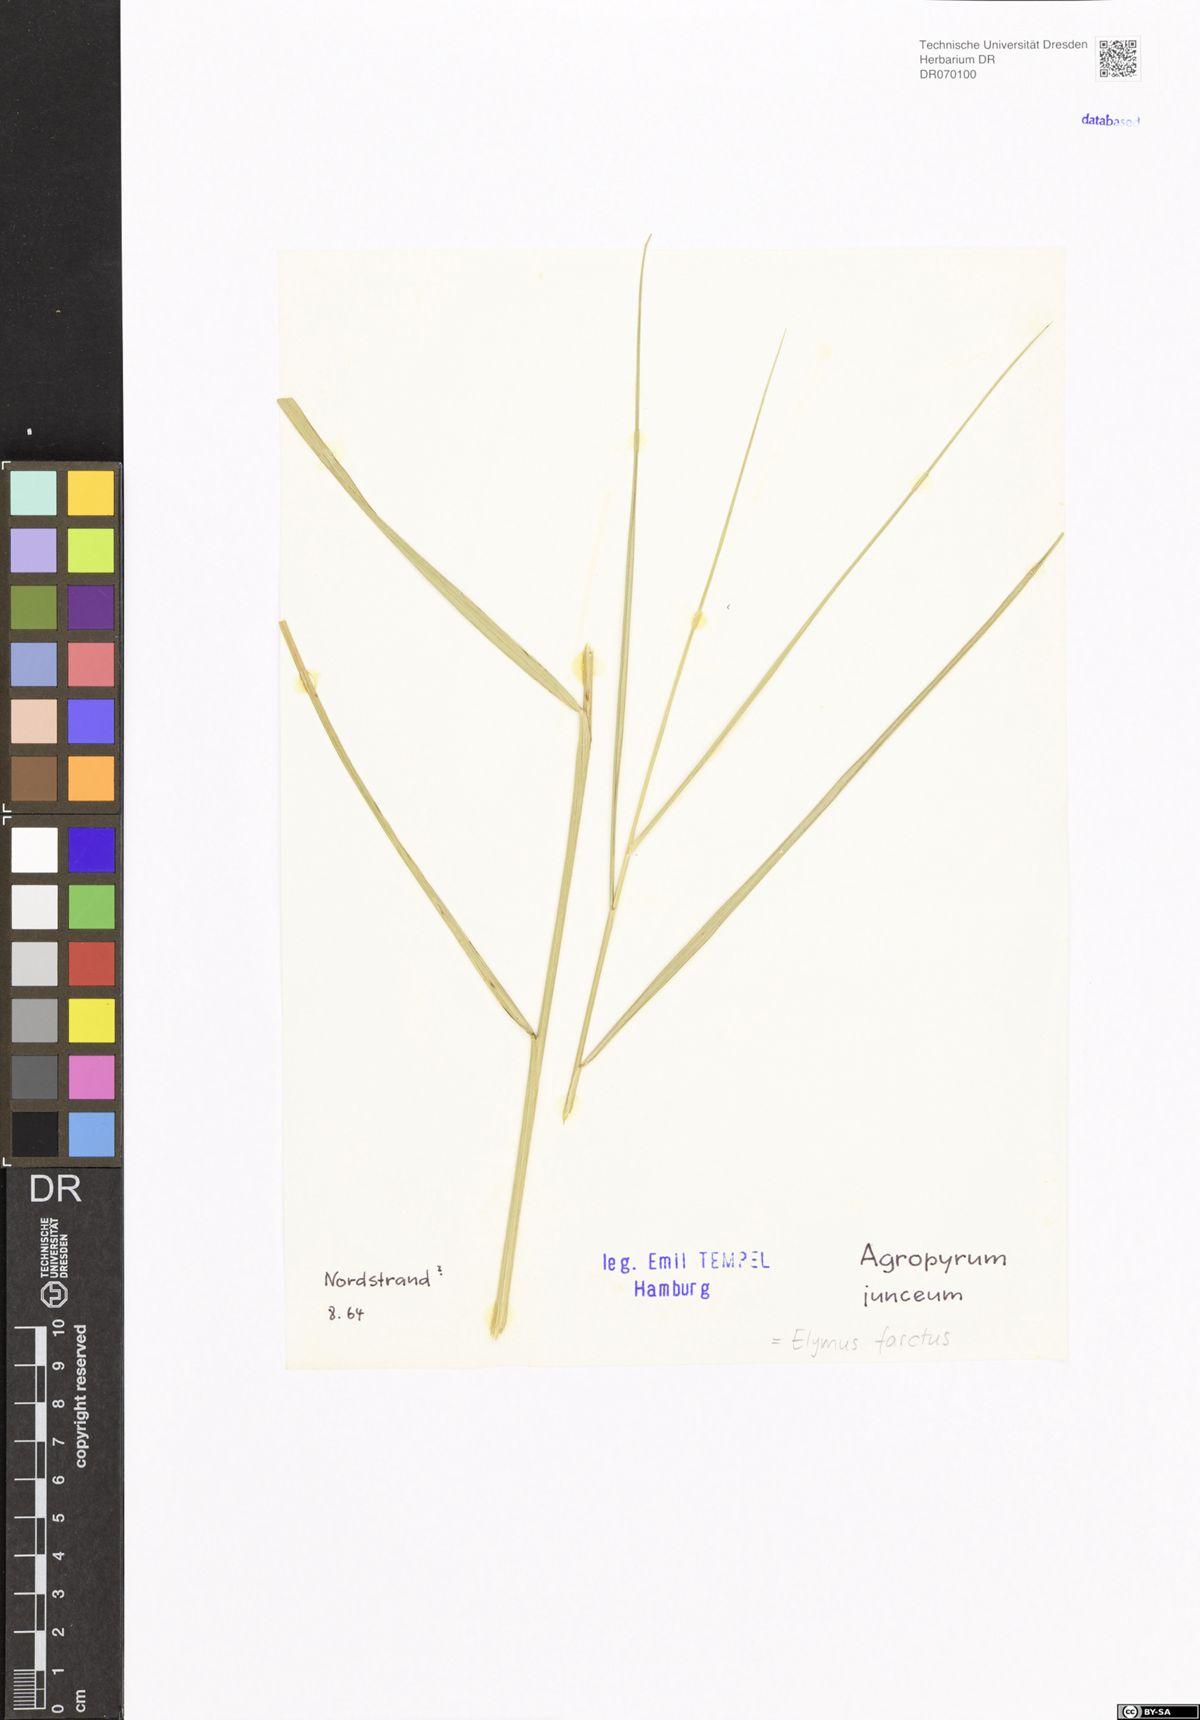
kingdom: Plantae
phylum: Tracheophyta
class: Liliopsida
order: Poales
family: Poaceae
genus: Thinopyrum
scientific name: Thinopyrum junceum
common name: Russian wheatgrass
